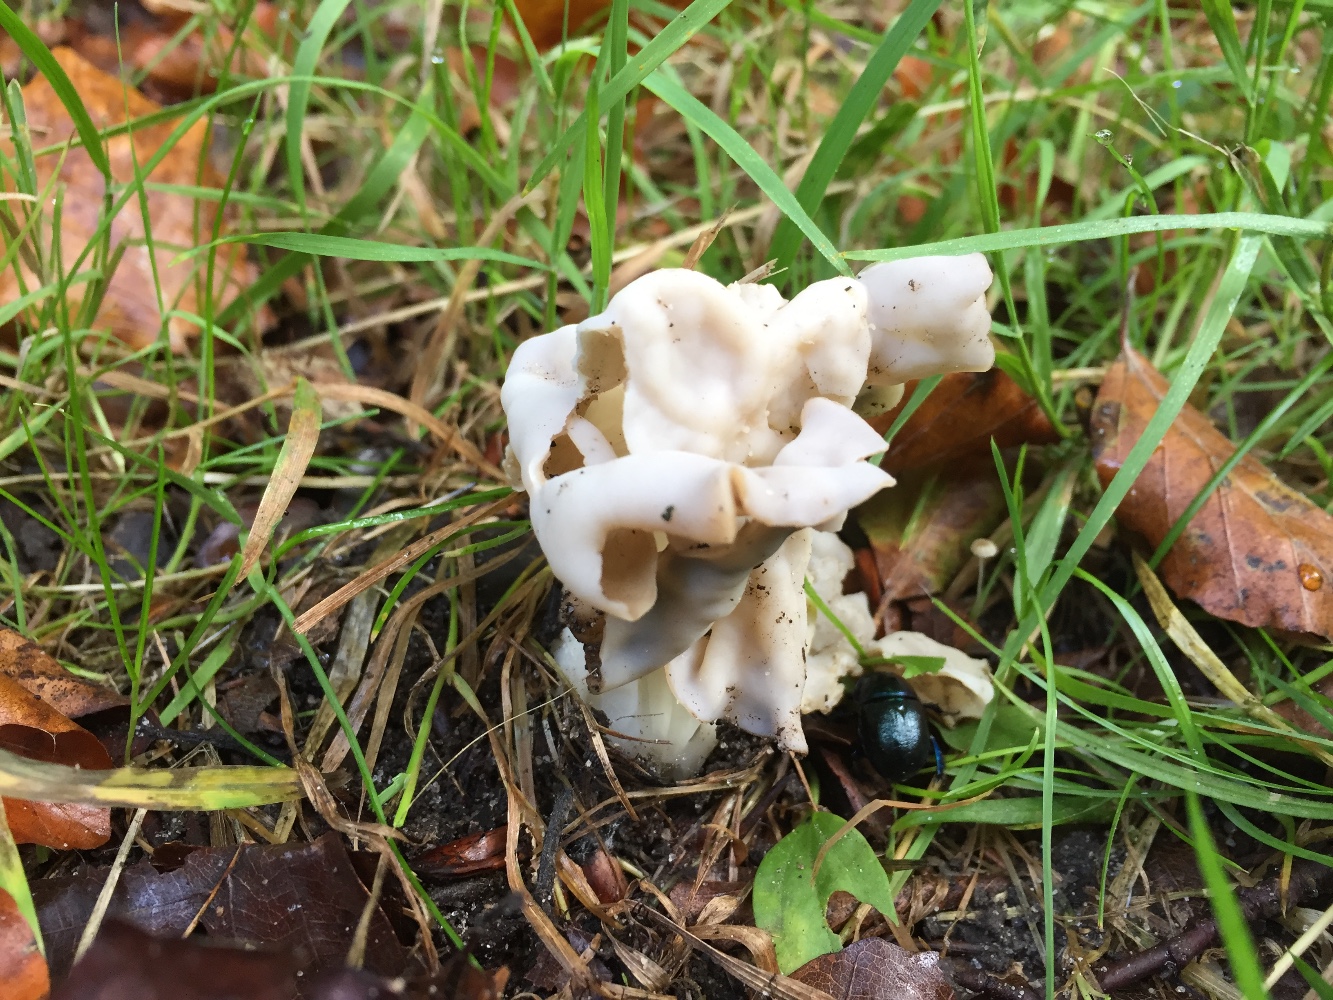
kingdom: Fungi
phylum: Ascomycota
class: Pezizomycetes
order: Pezizales
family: Helvellaceae
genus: Helvella
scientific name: Helvella crispa
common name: kruset foldhat
